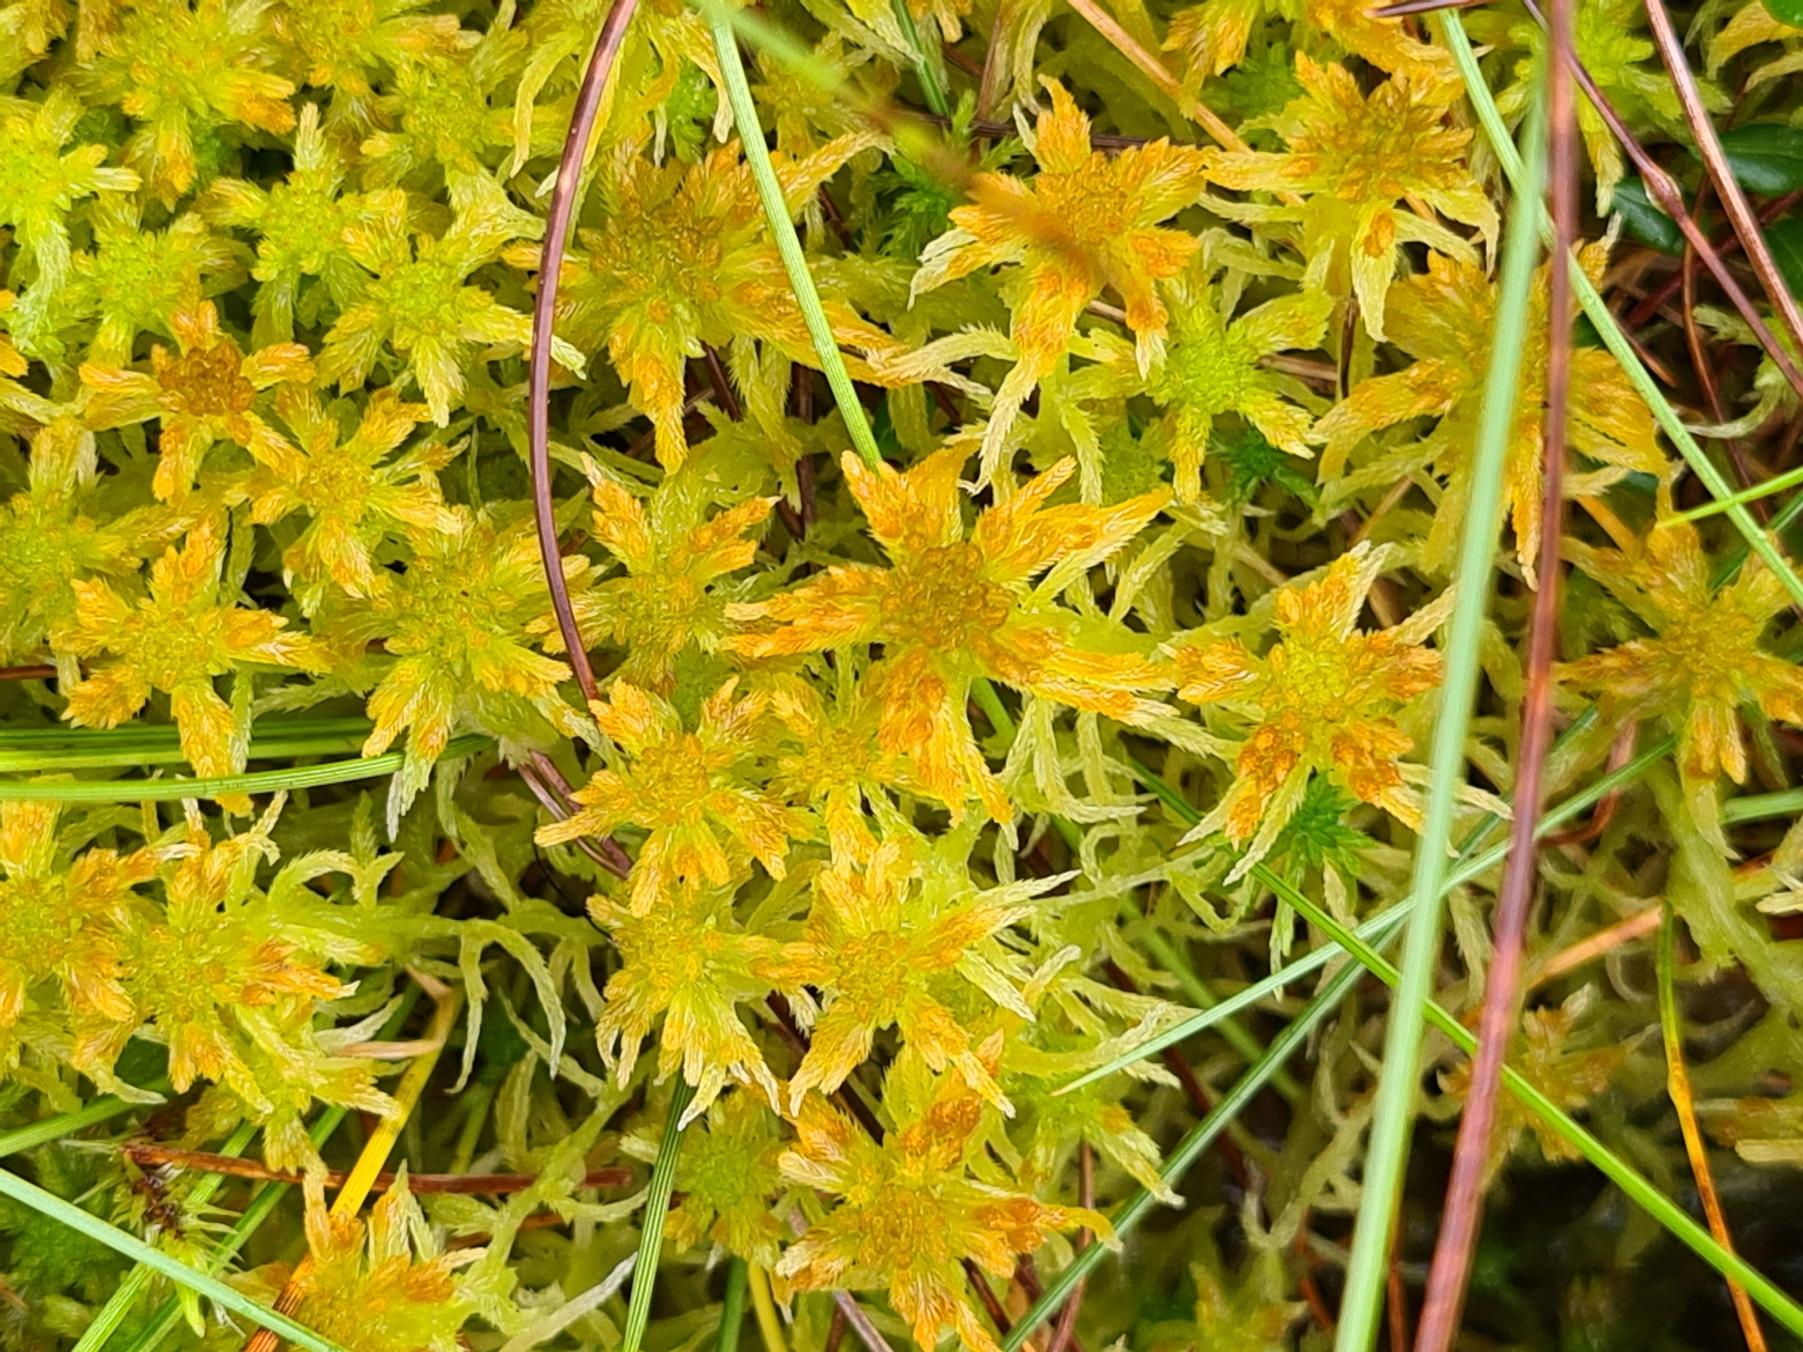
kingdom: Plantae
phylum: Bryophyta
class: Sphagnopsida
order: Sphagnales
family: Sphagnaceae
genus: Sphagnum
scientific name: Sphagnum fallax
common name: Brodspids-tørvemos
